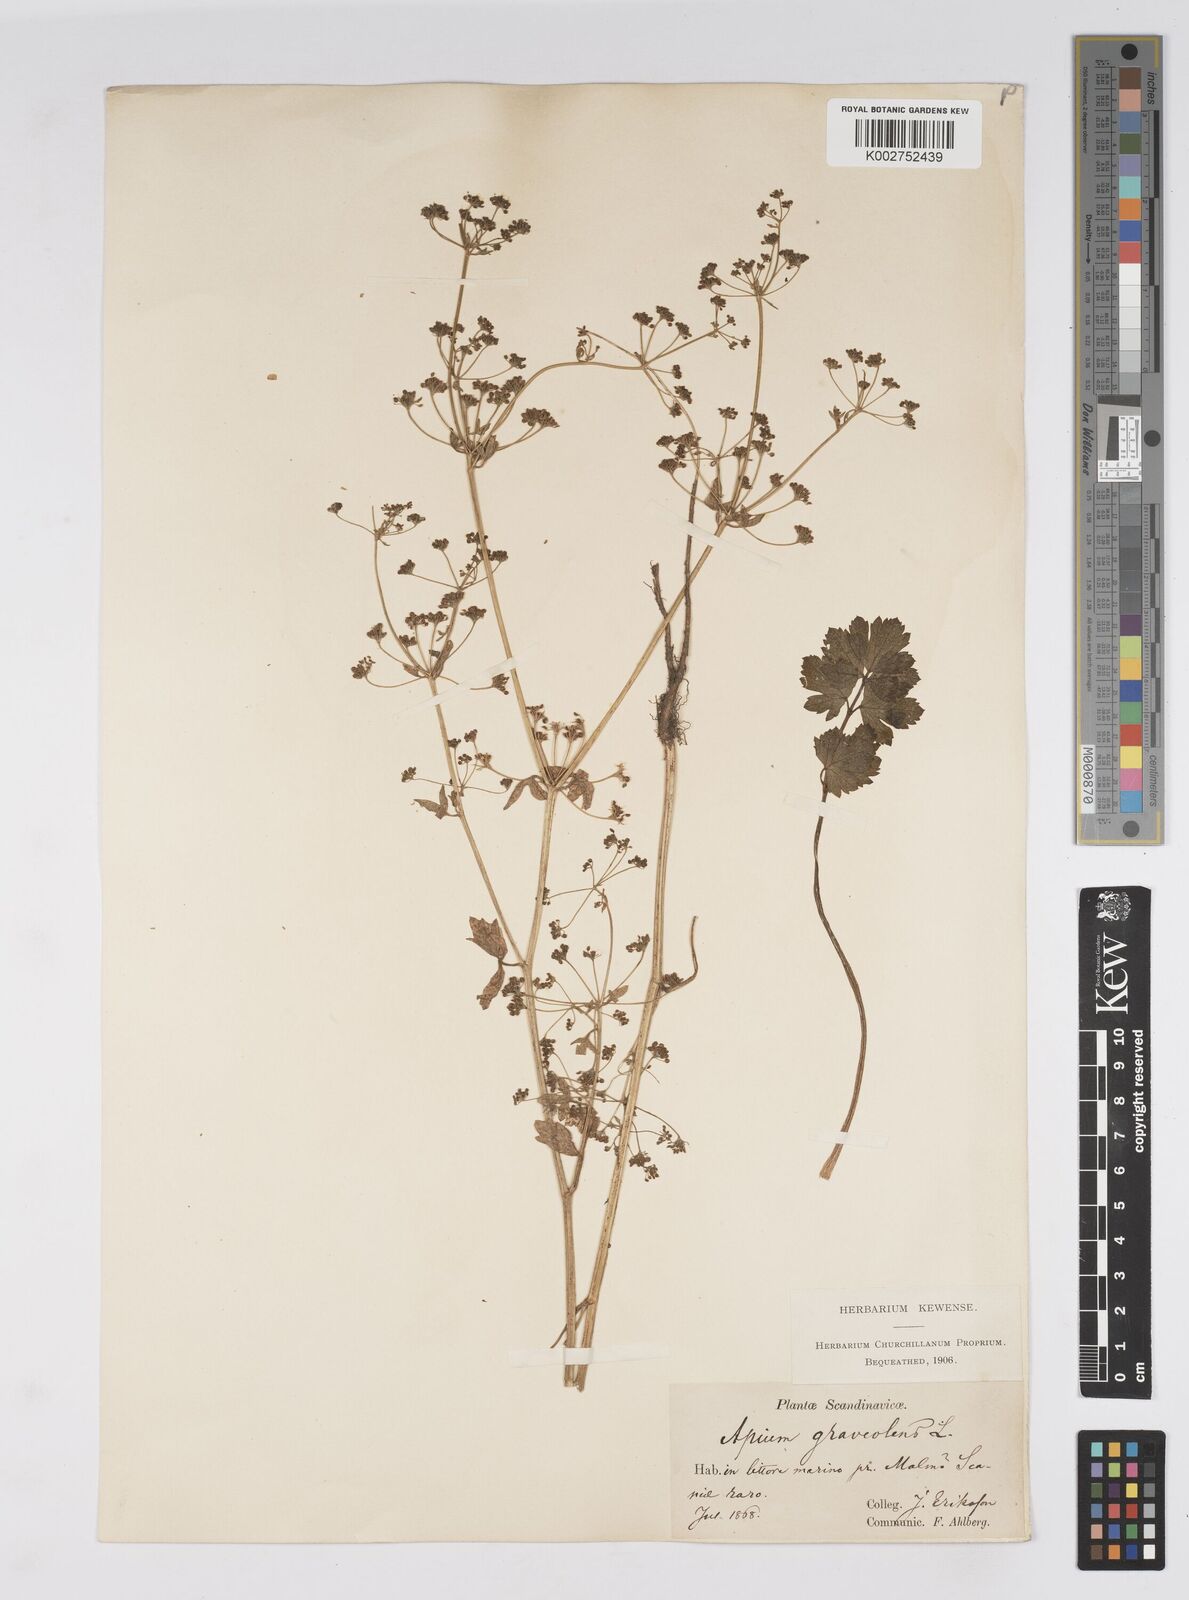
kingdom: Plantae
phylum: Tracheophyta
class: Magnoliopsida
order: Apiales
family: Apiaceae
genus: Apium
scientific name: Apium graveolens
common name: Wild celery
